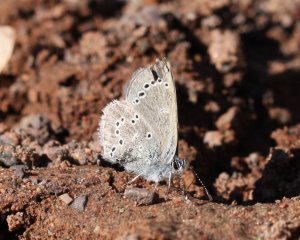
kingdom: Animalia
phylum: Arthropoda
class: Insecta
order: Lepidoptera
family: Lycaenidae
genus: Glaucopsyche
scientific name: Glaucopsyche lygdamus
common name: Silvery Blue
